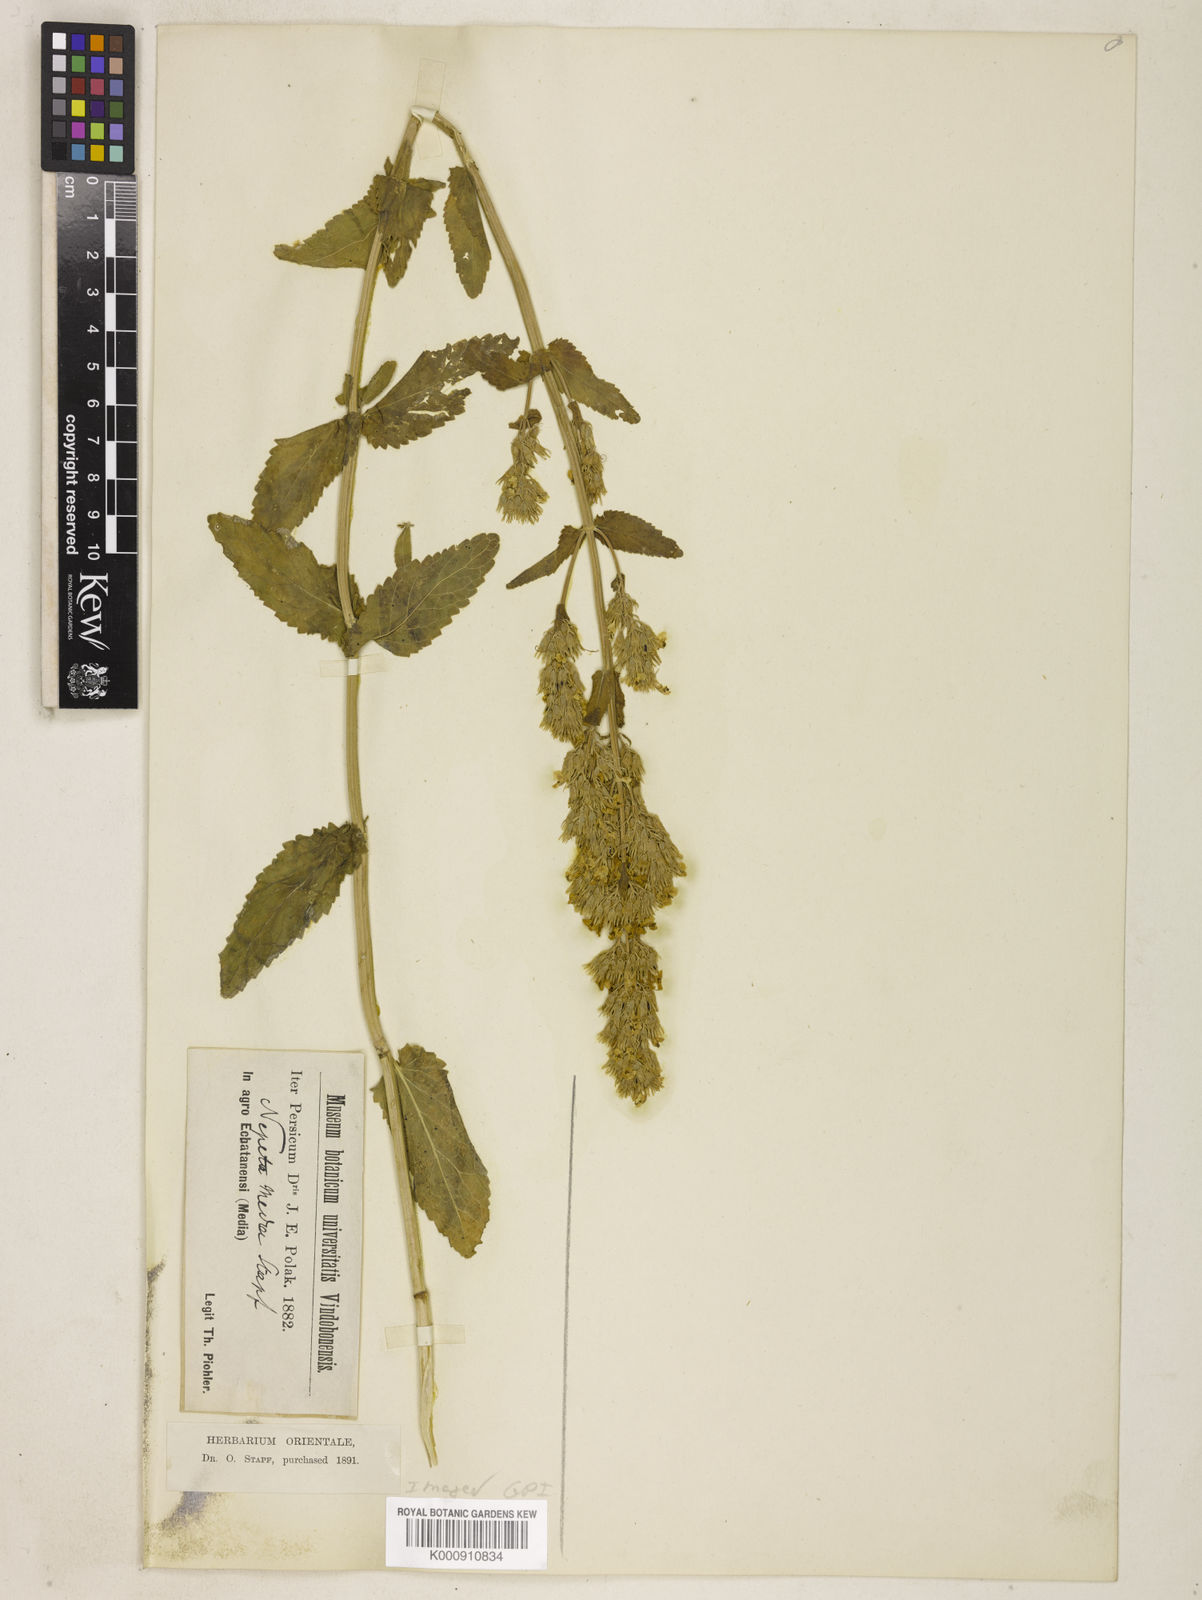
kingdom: Plantae
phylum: Tracheophyta
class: Magnoliopsida
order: Lamiales
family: Lamiaceae
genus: Nepeta
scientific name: Nepeta nuda
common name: Hairless catmint
